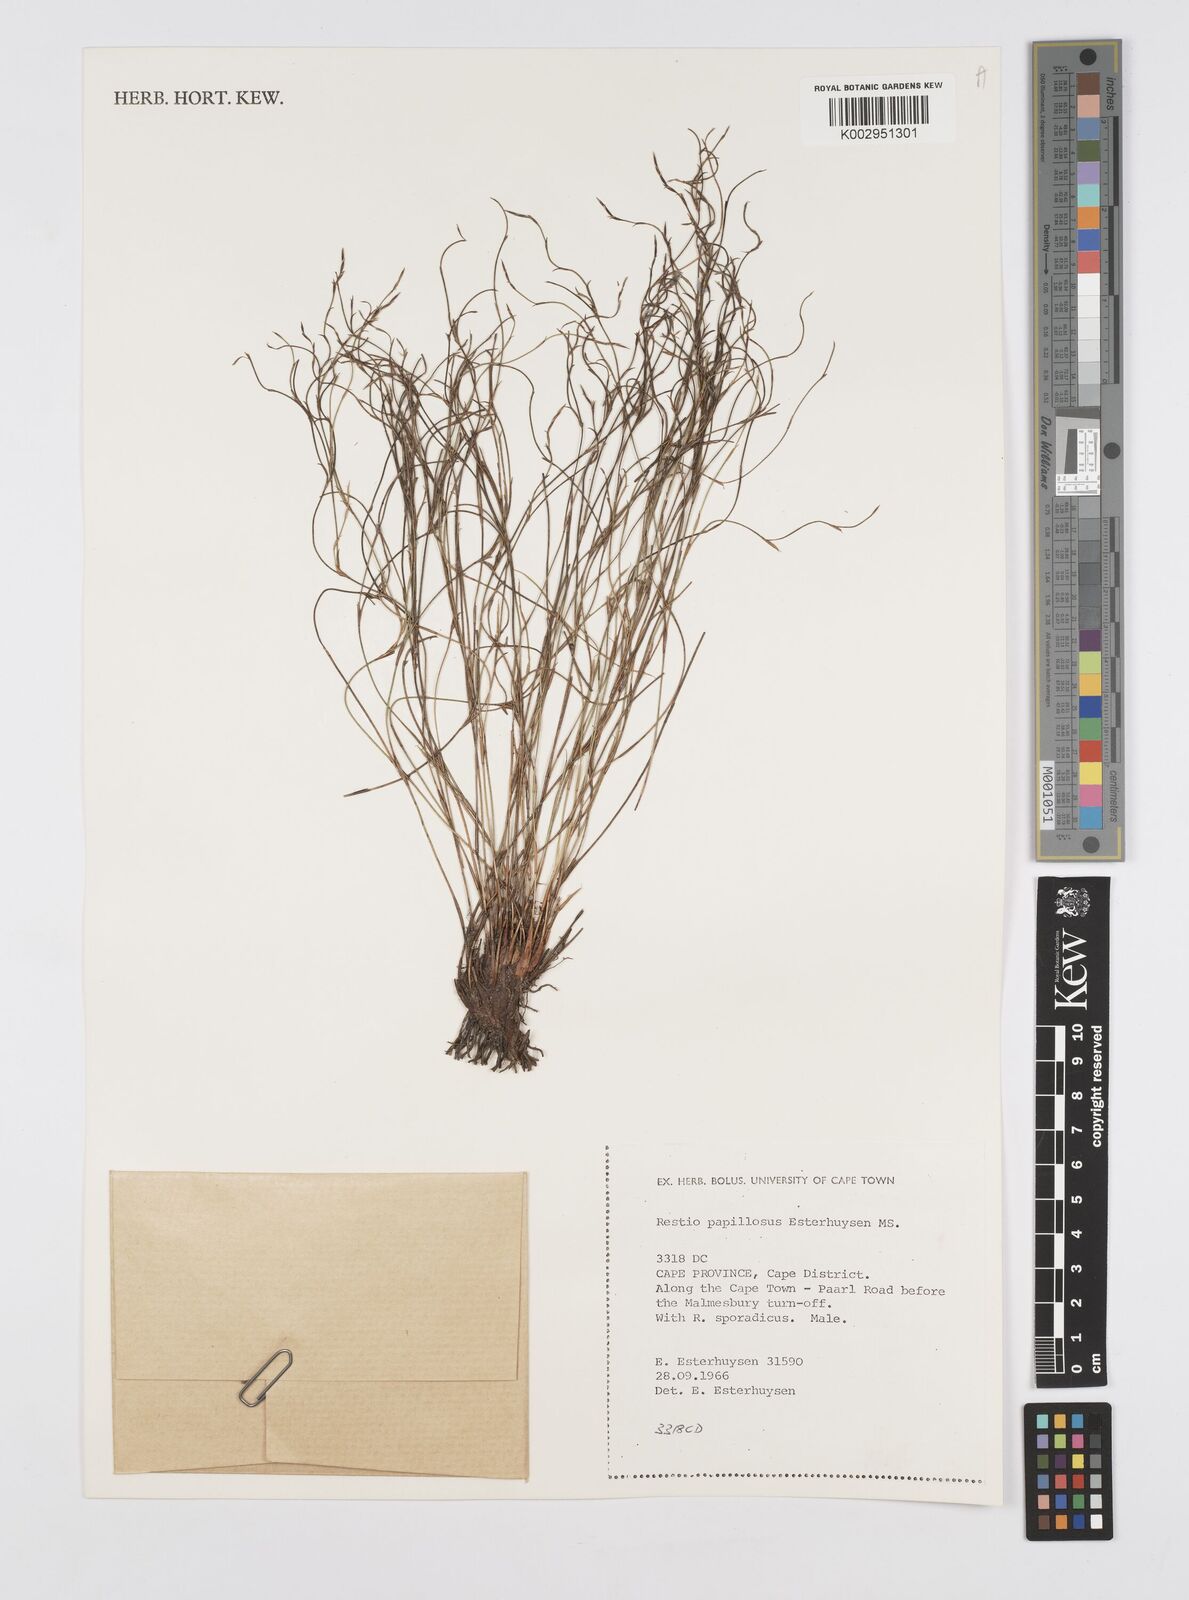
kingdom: Plantae
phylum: Tracheophyta
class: Liliopsida
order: Poales
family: Restionaceae
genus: Restio
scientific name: Restio papillosus
